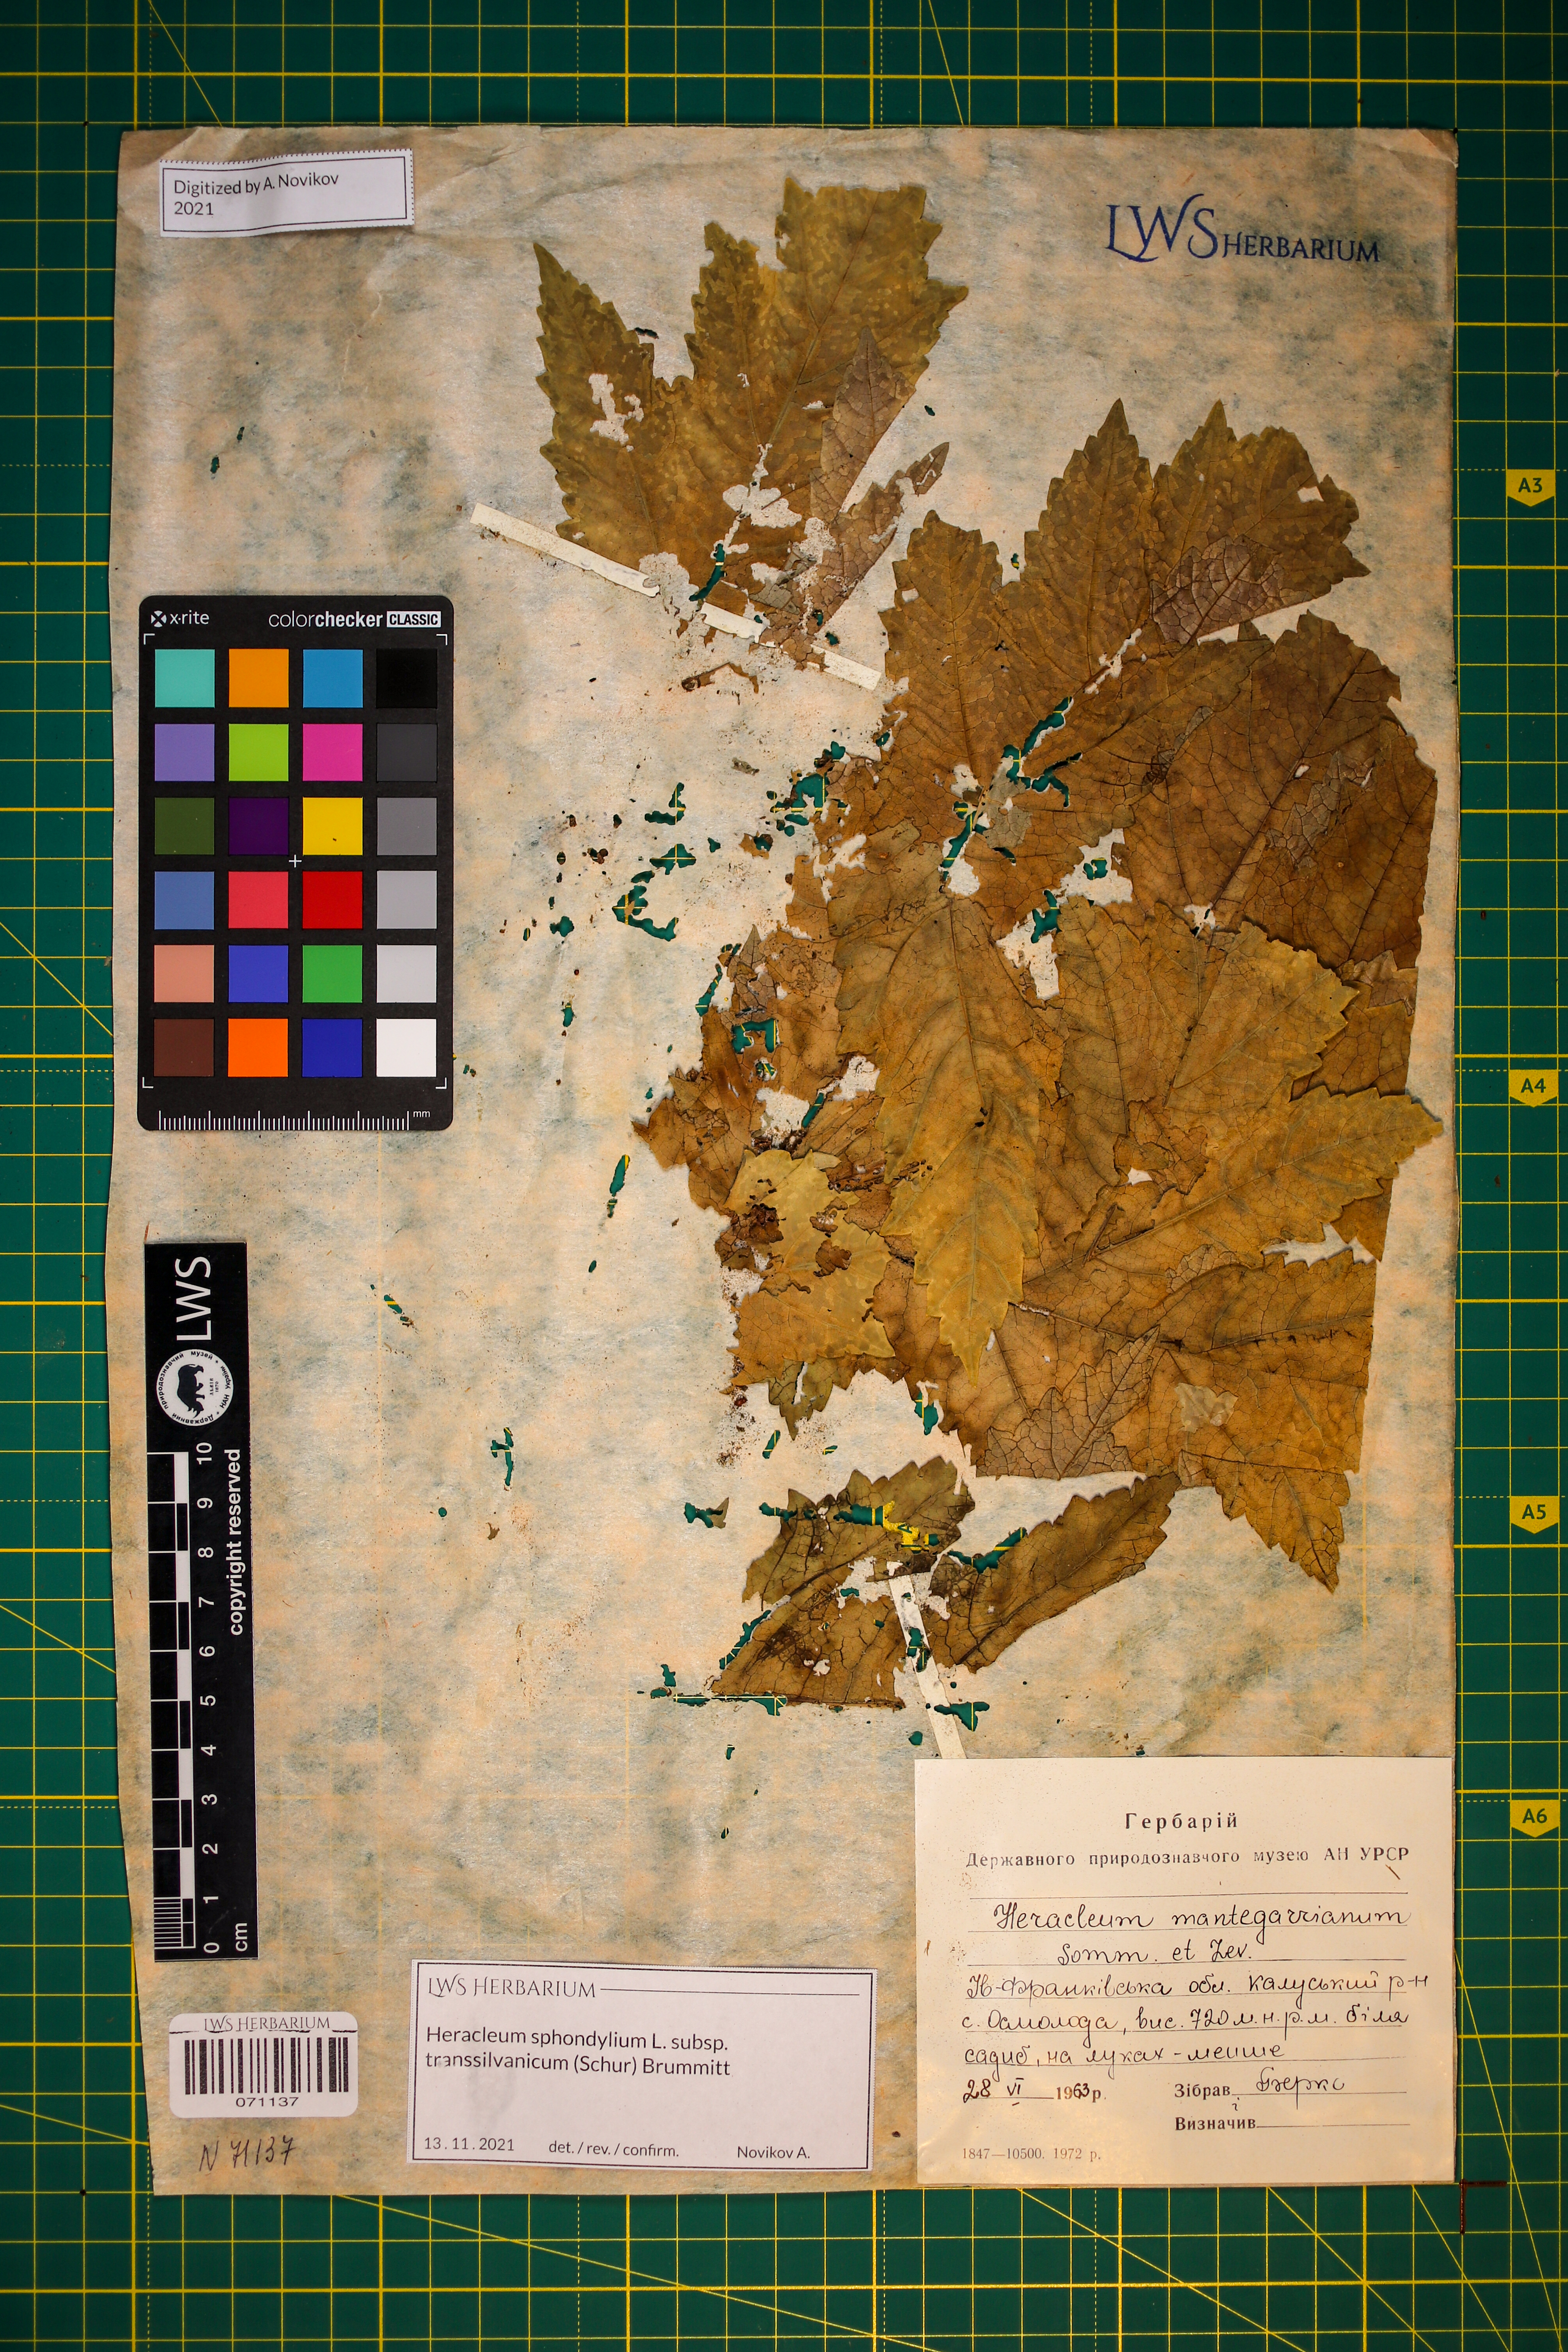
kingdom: Plantae
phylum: Tracheophyta
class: Magnoliopsida
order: Apiales
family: Apiaceae
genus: Heracleum
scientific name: Heracleum sphondylium
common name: Hogweed
